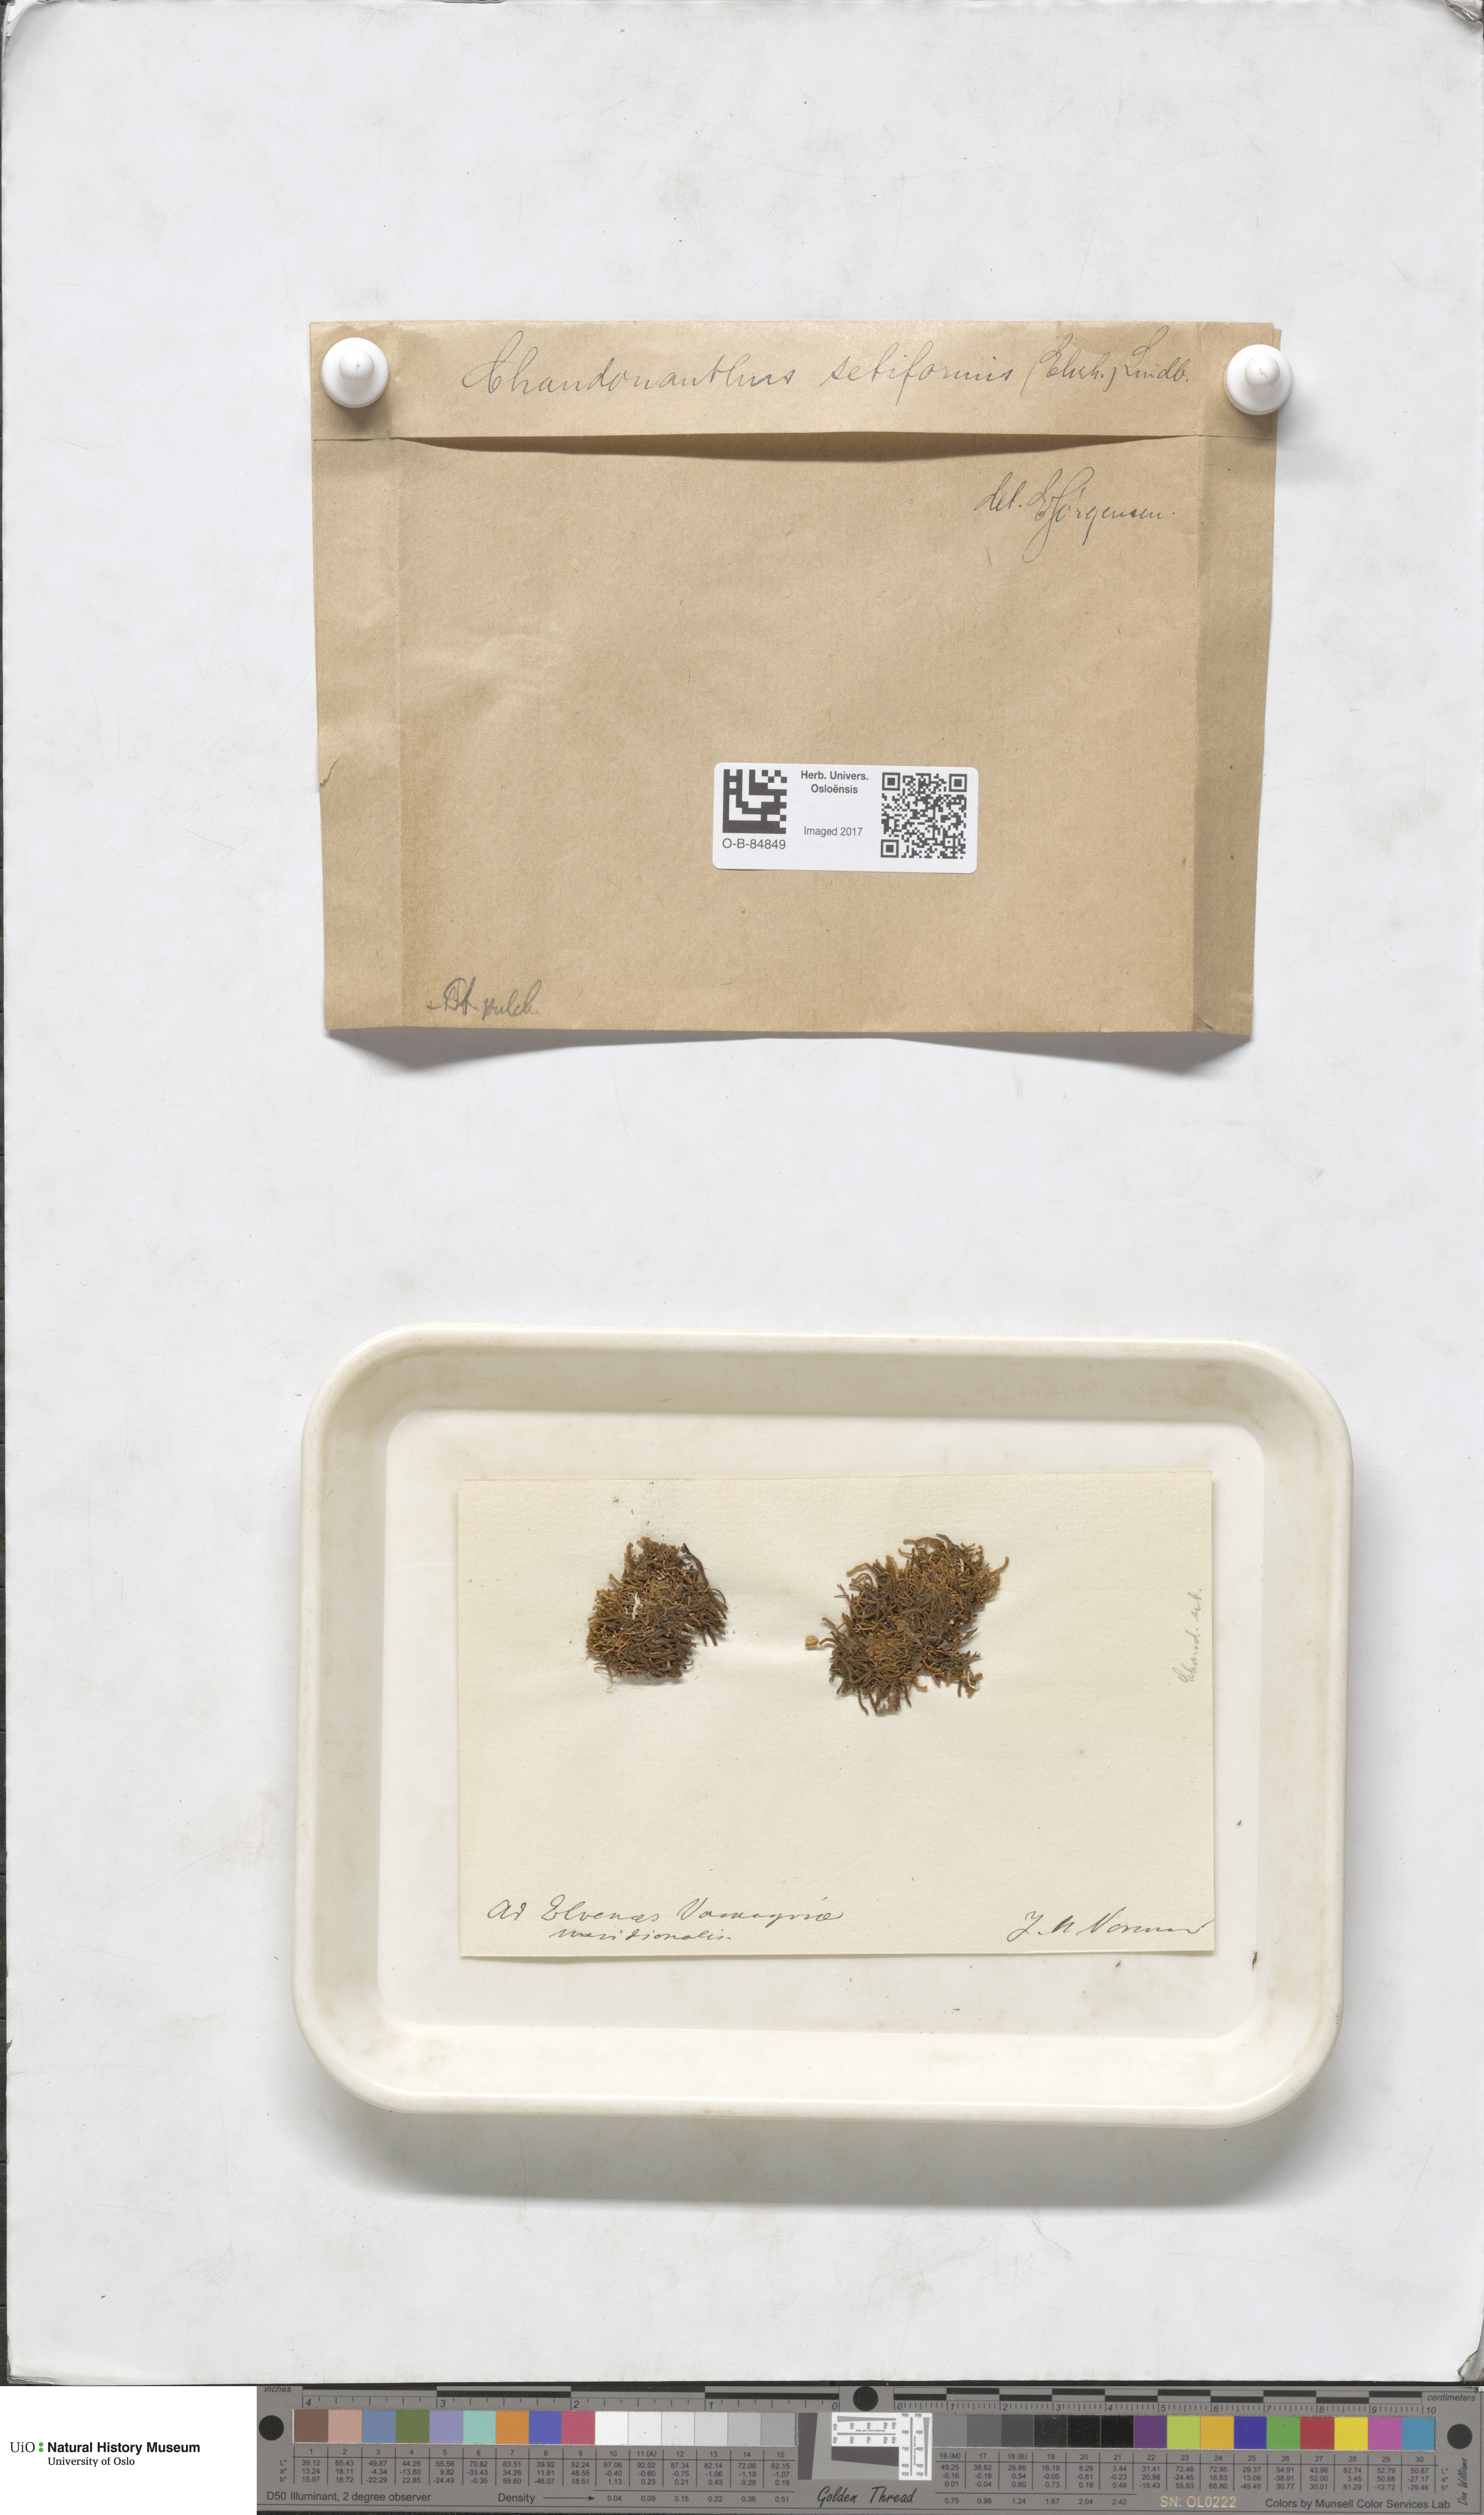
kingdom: Plantae
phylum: Marchantiophyta
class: Jungermanniopsida
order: Jungermanniales
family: Anastrophyllaceae
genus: Tetralophozia
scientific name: Tetralophozia setiformis
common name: Monster pawwort
